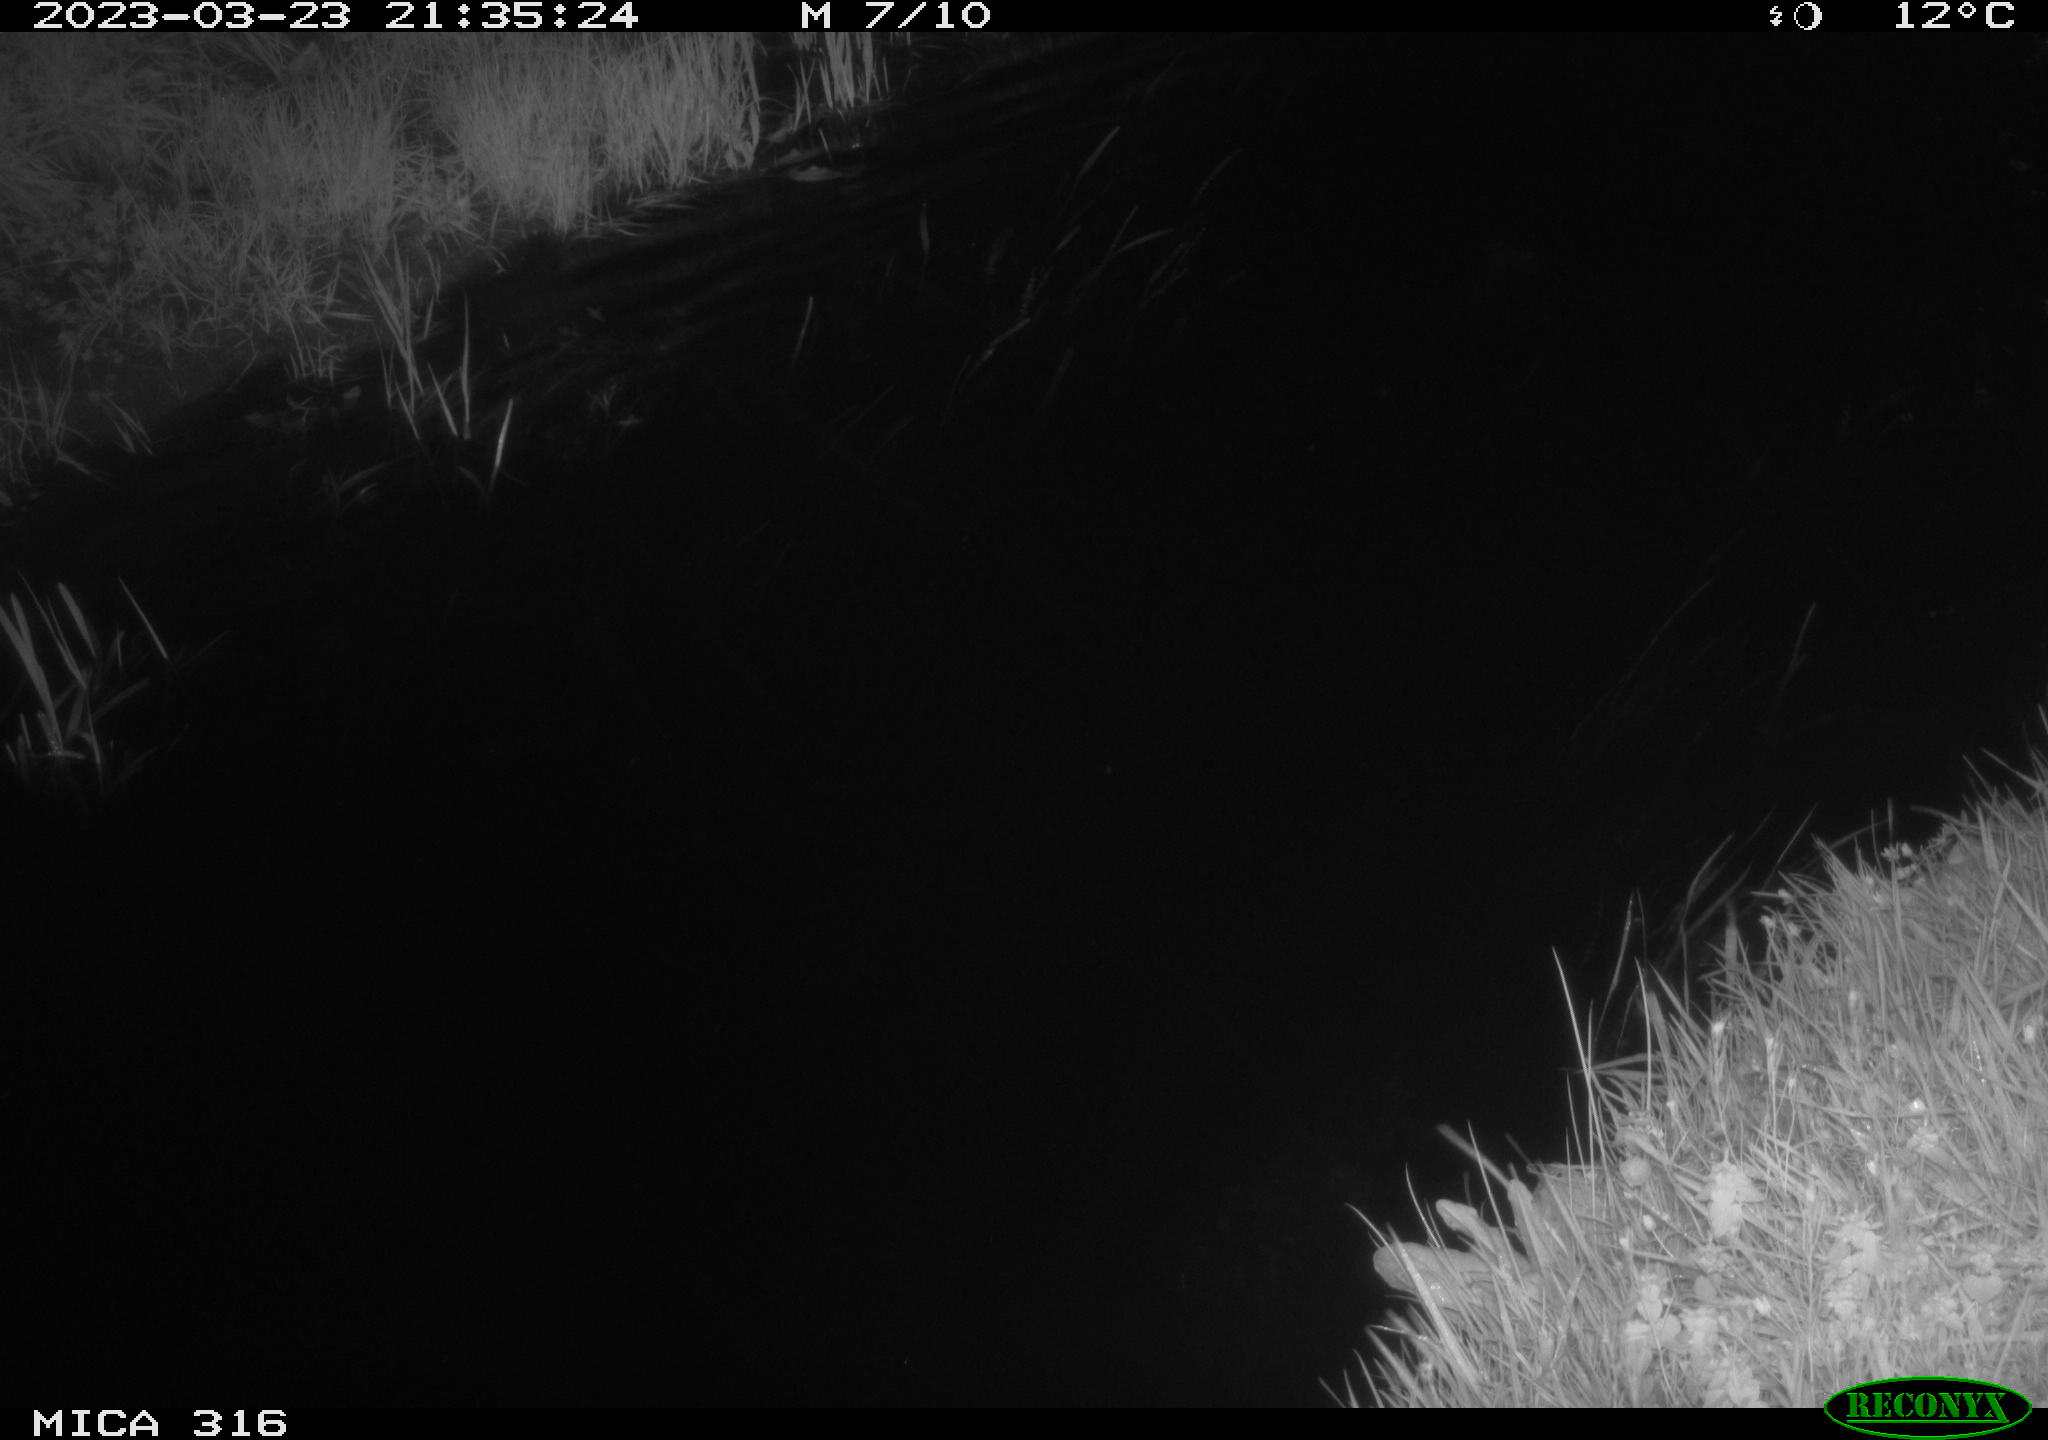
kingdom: Animalia
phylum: Chordata
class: Aves
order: Anseriformes
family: Anatidae
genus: Anas
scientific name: Anas
